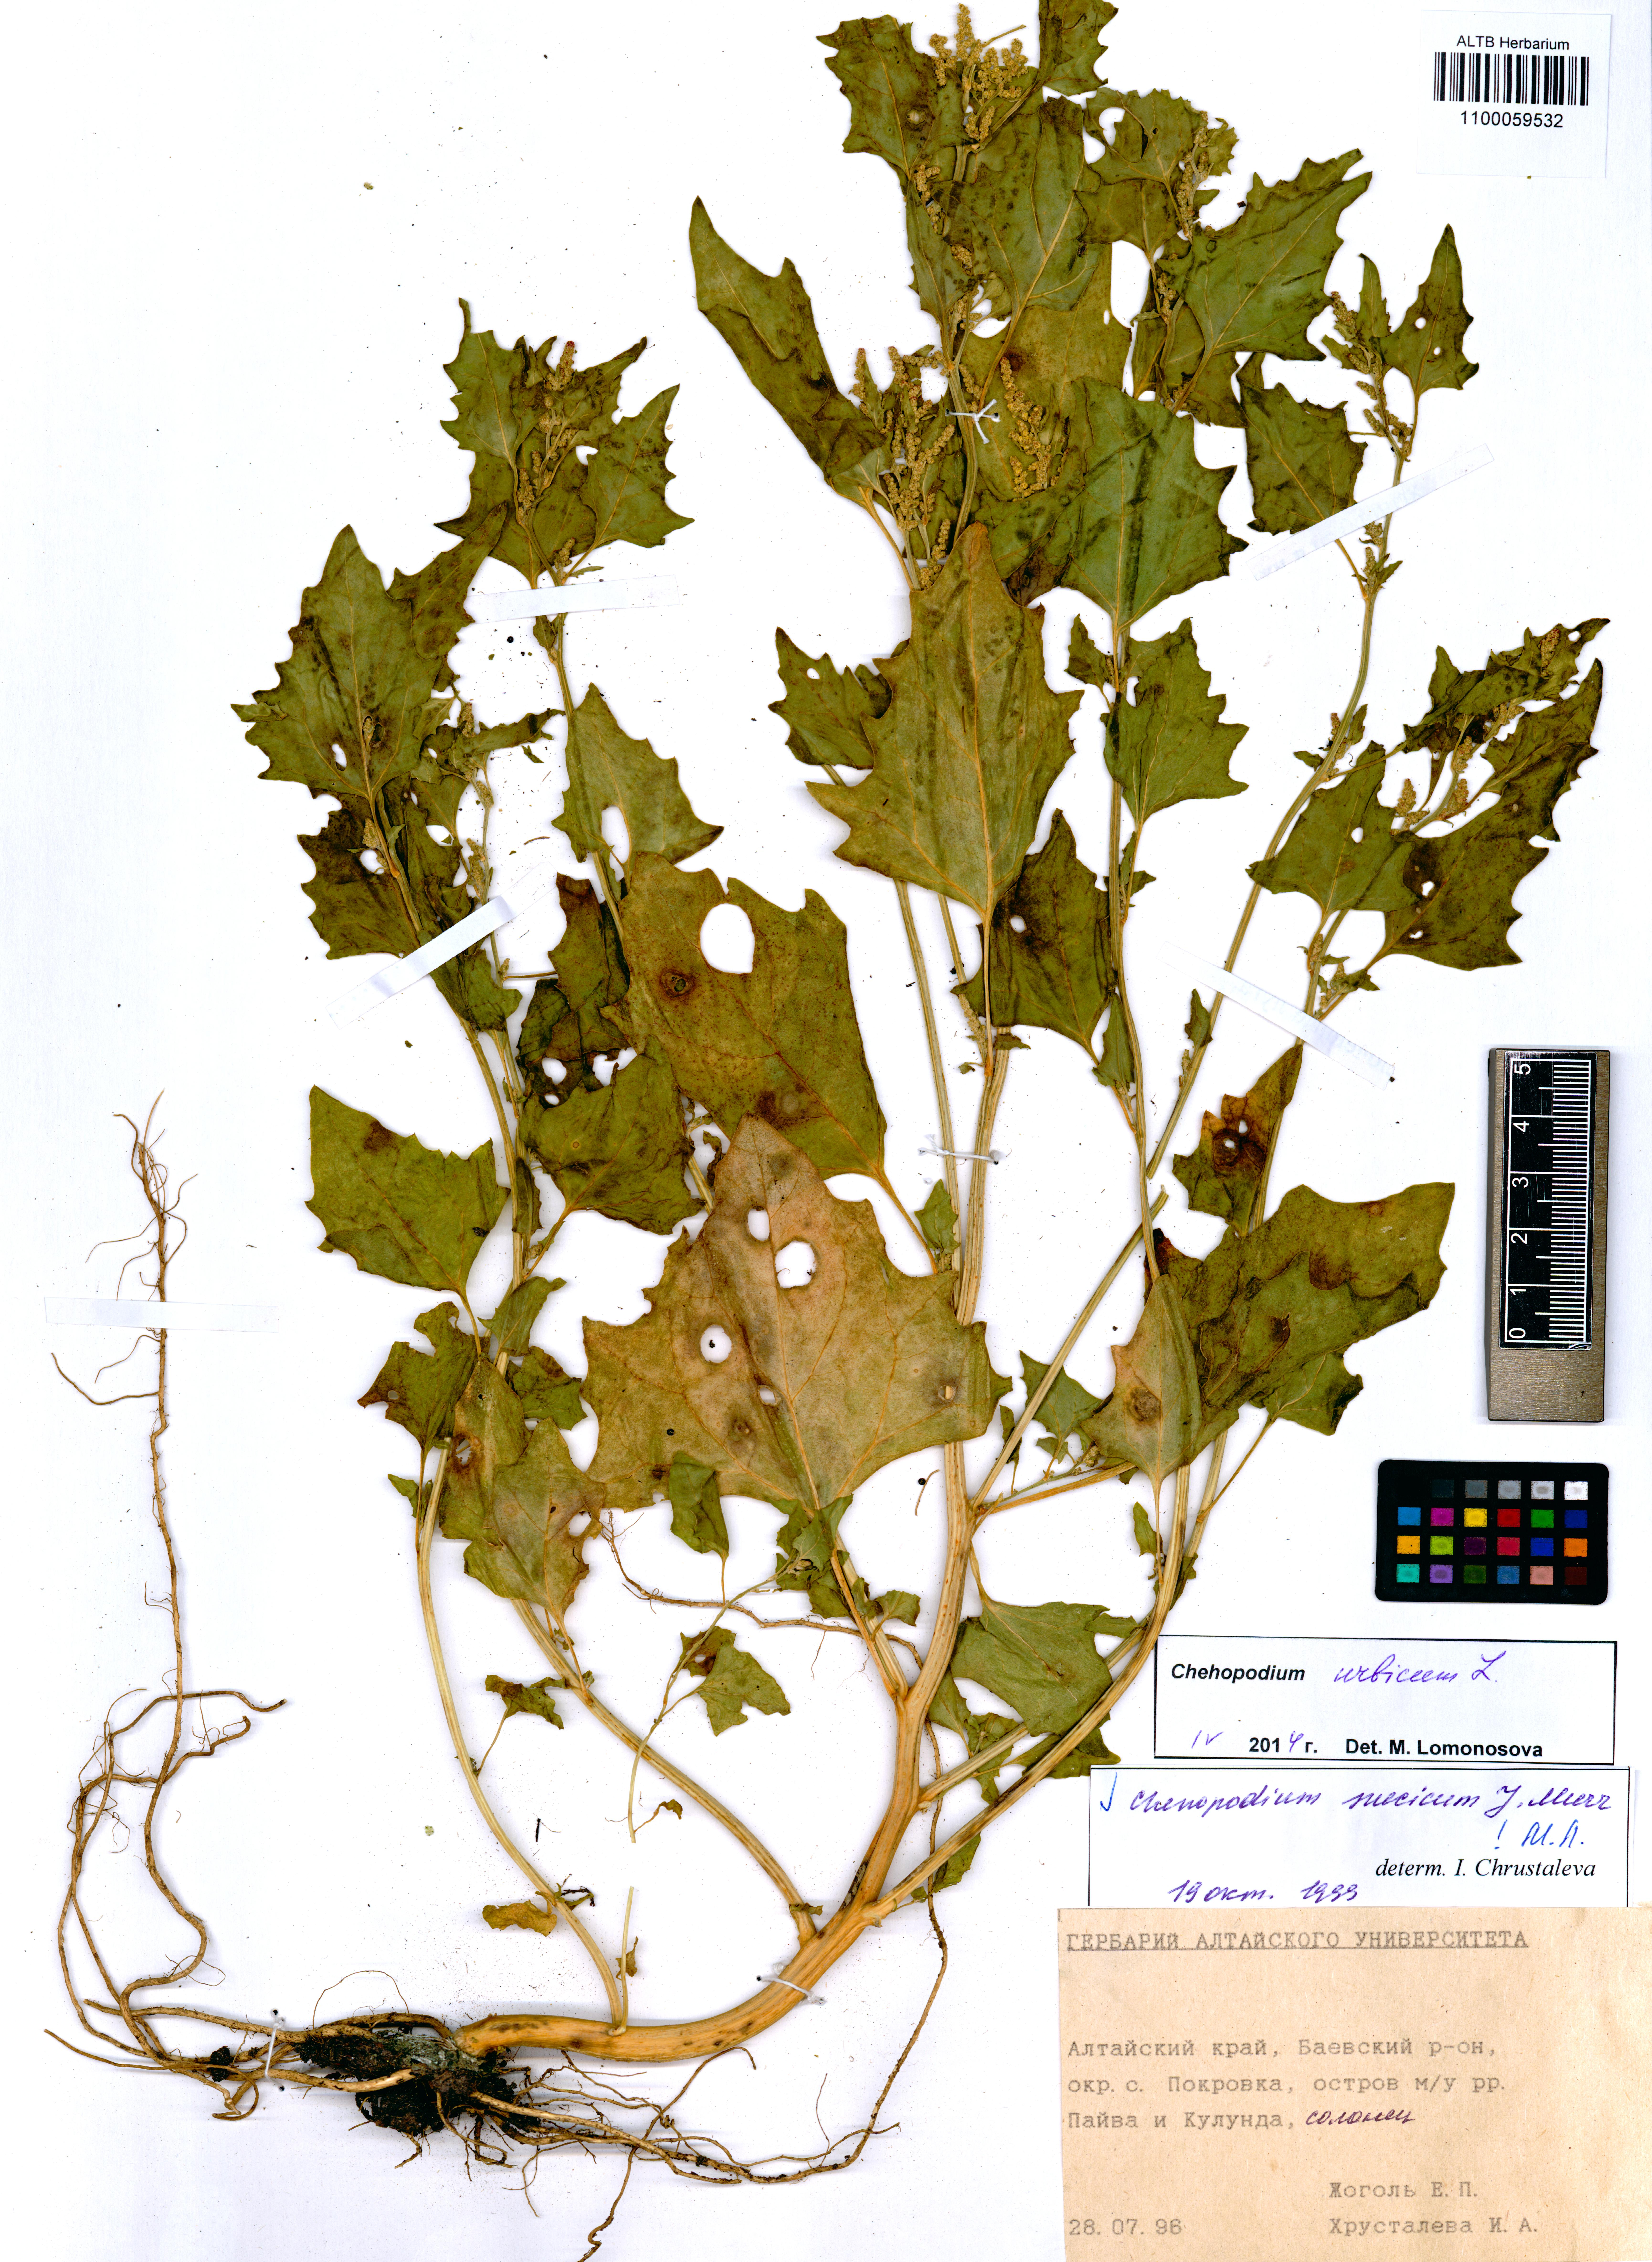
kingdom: Plantae
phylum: Tracheophyta
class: Magnoliopsida
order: Caryophyllales
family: Amaranthaceae
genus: Chenopodium
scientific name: Chenopodium suecicum
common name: Swedish goosefoot
